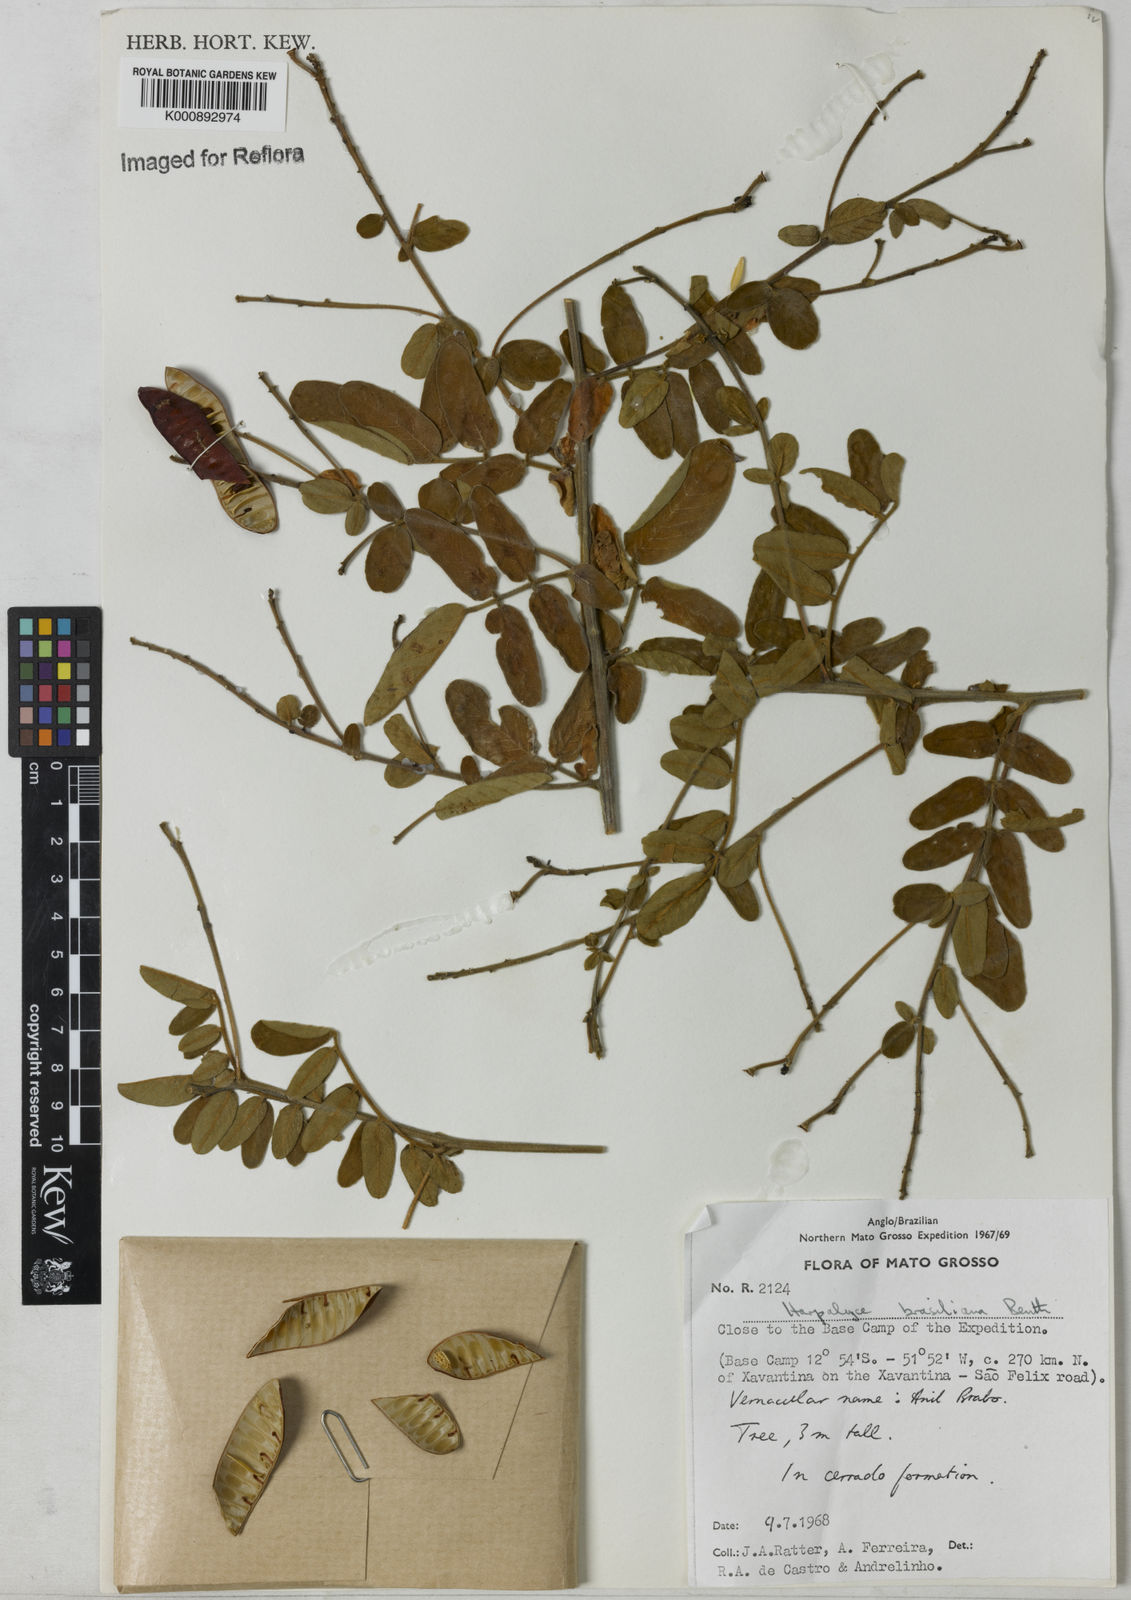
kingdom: Plantae
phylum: Tracheophyta
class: Magnoliopsida
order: Fabales
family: Fabaceae
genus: Harpalyce
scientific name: Harpalyce brasiliana
